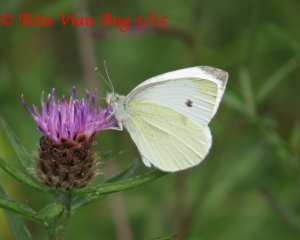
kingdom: Animalia
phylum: Arthropoda
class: Insecta
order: Lepidoptera
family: Pieridae
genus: Pieris
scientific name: Pieris rapae
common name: Cabbage White
